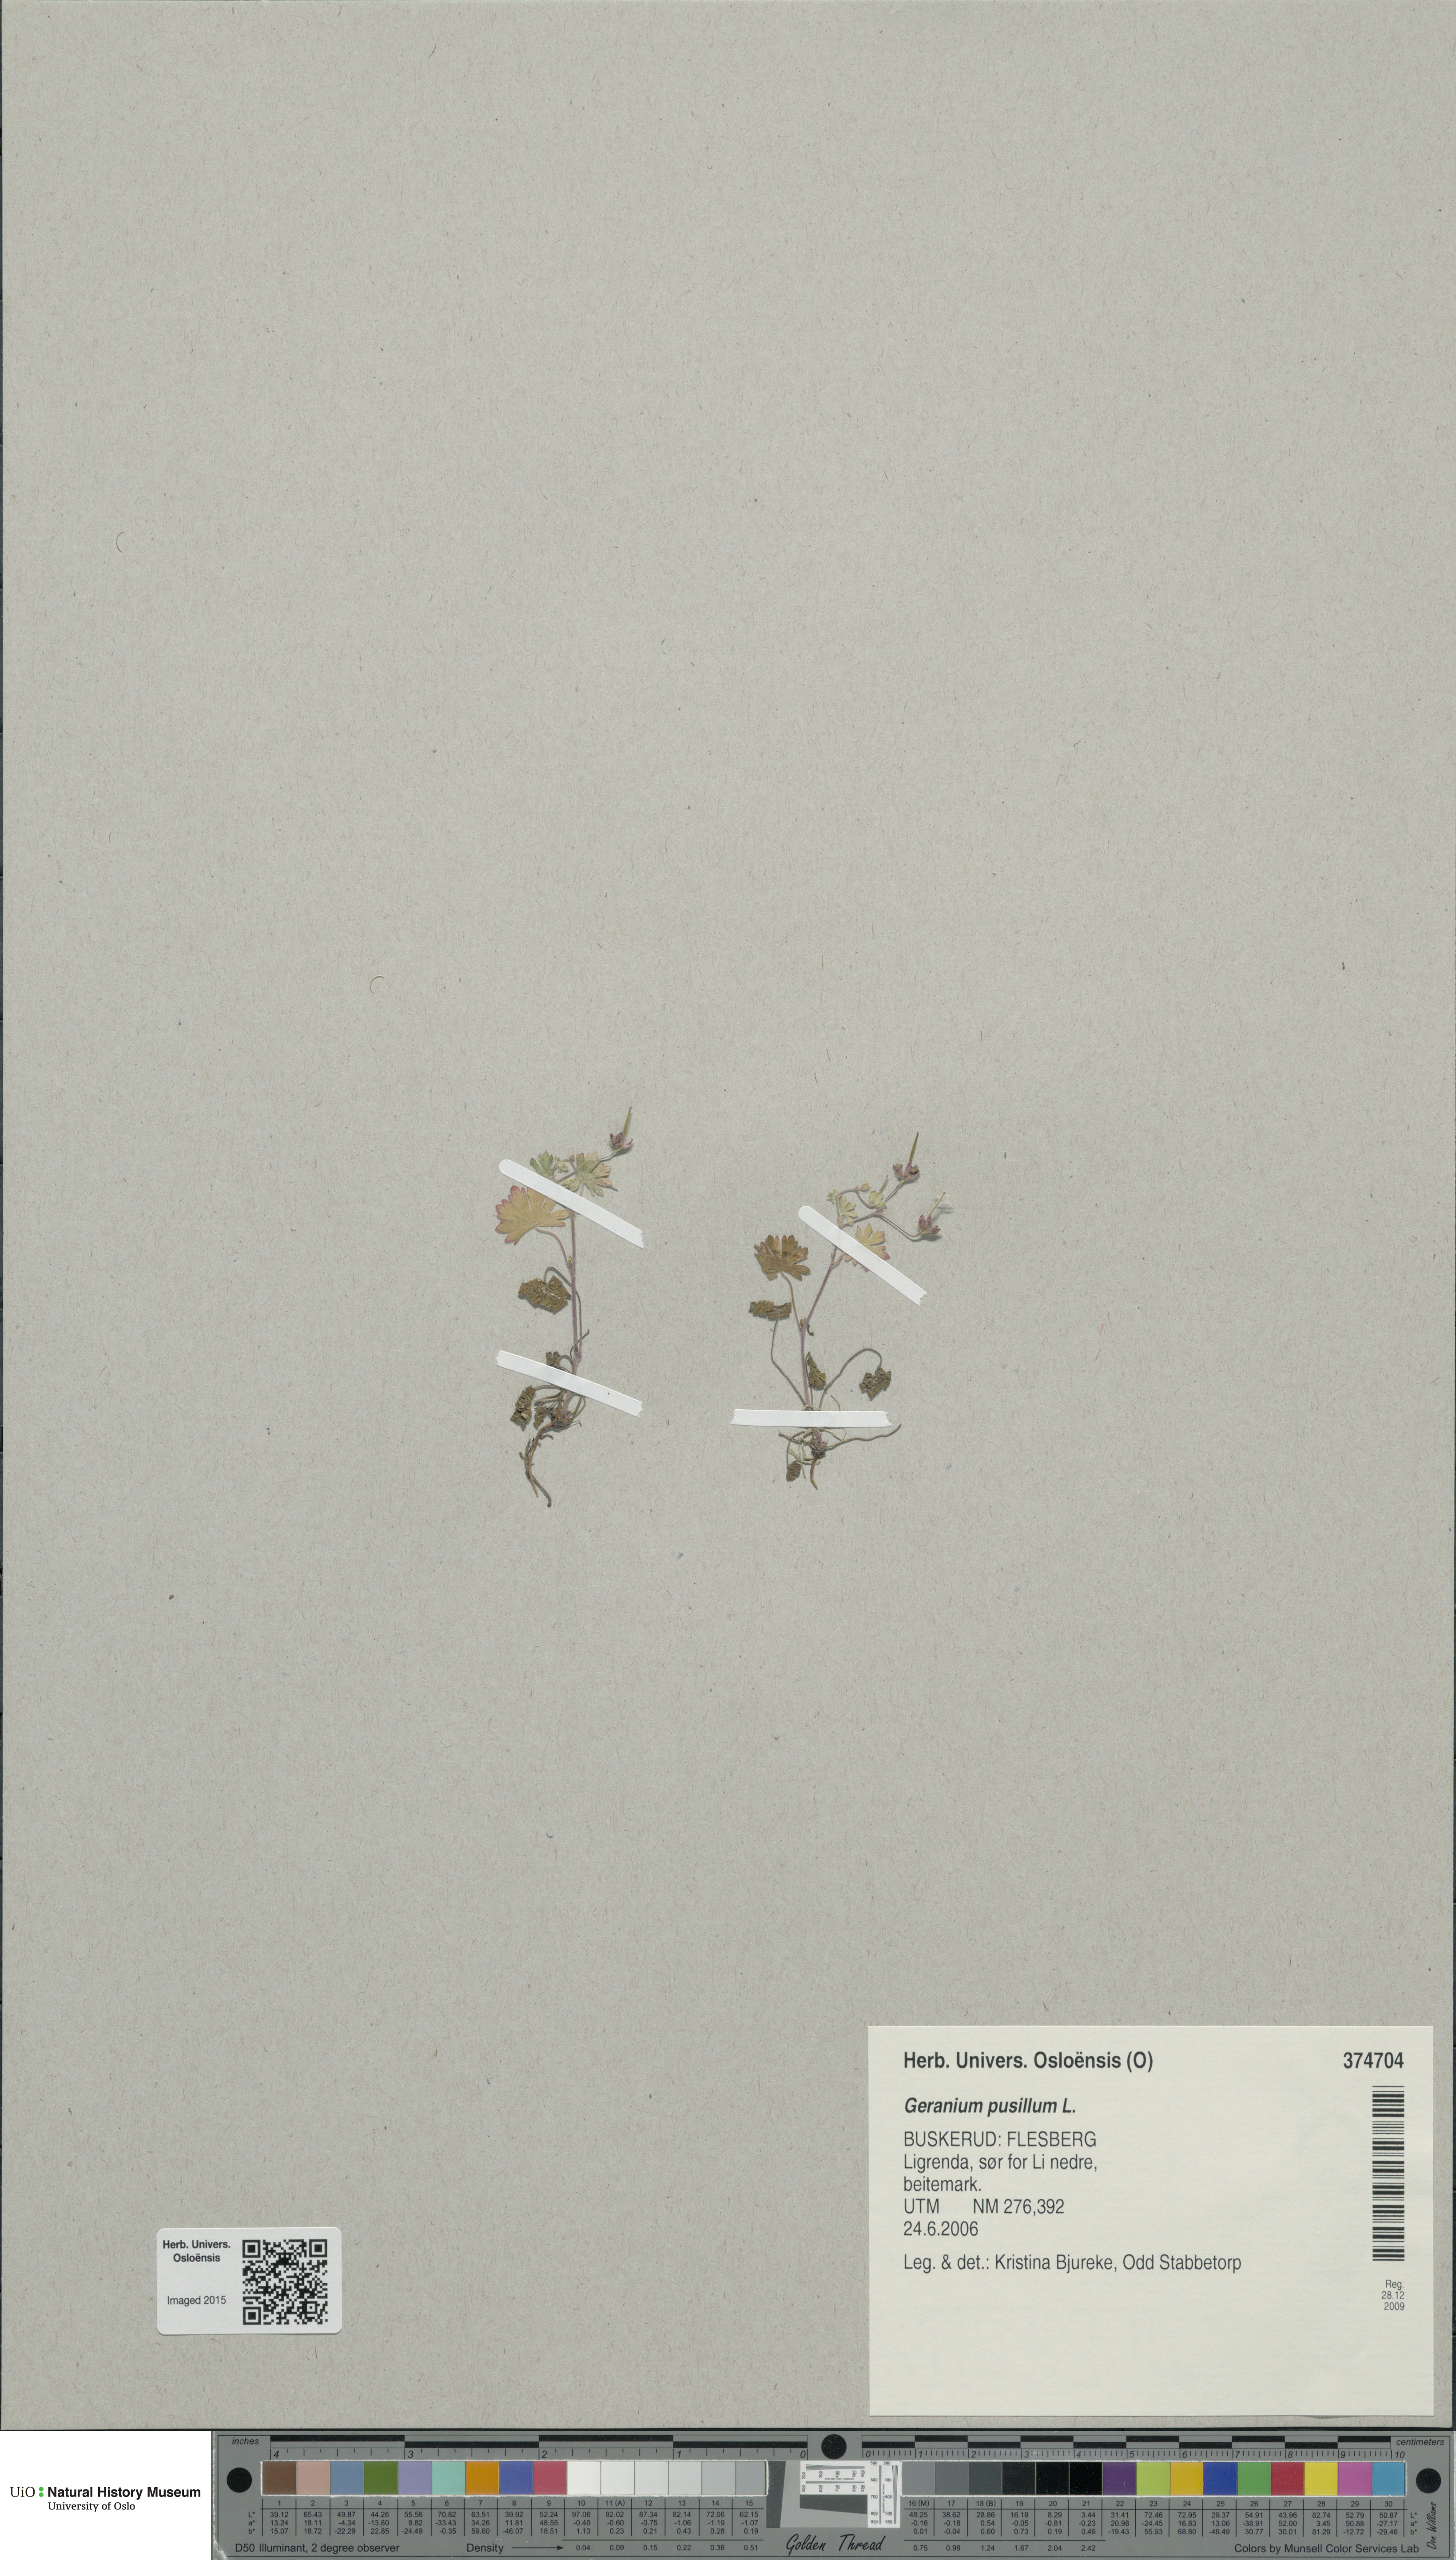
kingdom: Plantae
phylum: Tracheophyta
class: Magnoliopsida
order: Geraniales
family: Geraniaceae
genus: Geranium
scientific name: Geranium pusillum
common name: Small geranium
